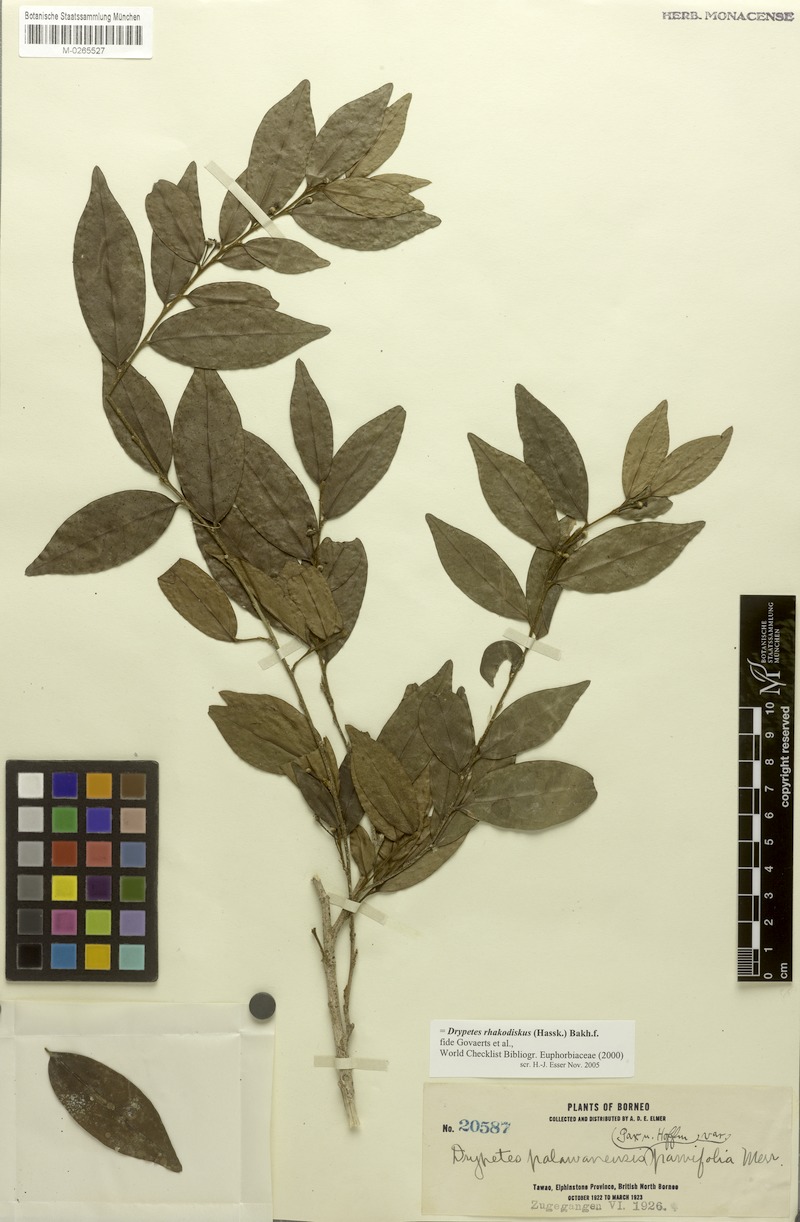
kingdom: Plantae
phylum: Tracheophyta
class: Magnoliopsida
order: Malpighiales
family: Putranjivaceae
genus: Drypetes
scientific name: Drypetes rhakodiskos
